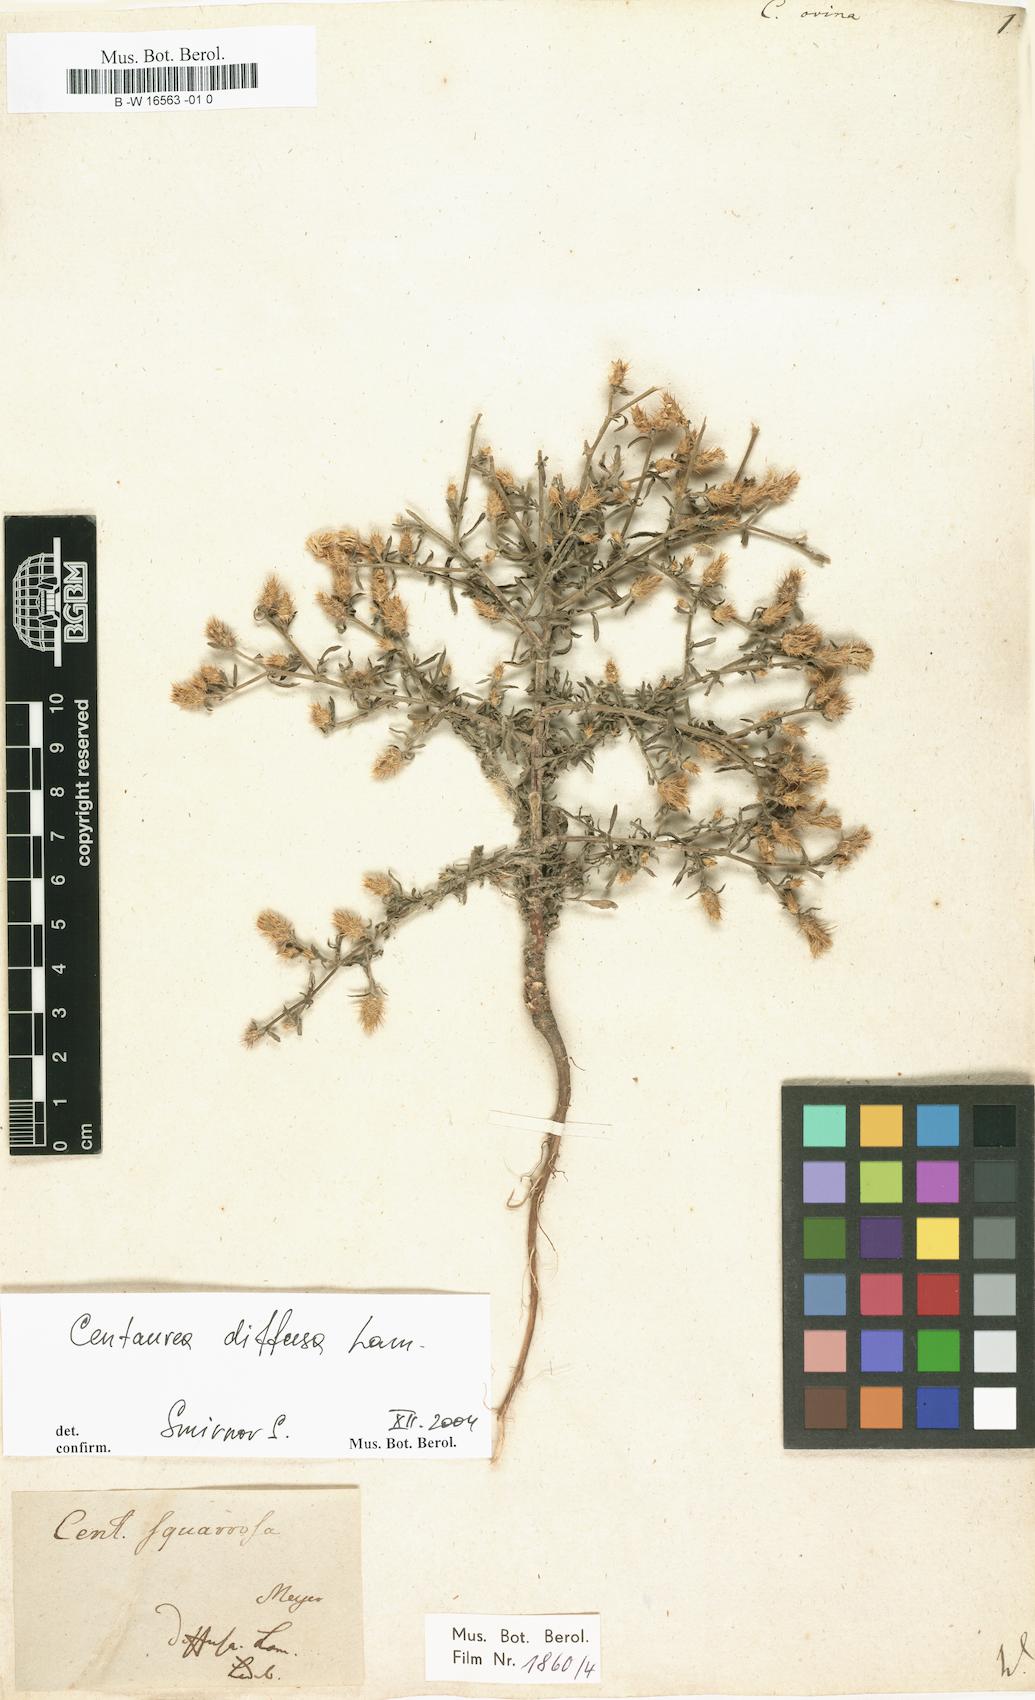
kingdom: Plantae
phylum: Tracheophyta
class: Magnoliopsida
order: Asterales
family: Asteraceae
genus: Centaurea
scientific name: Centaurea ovina
